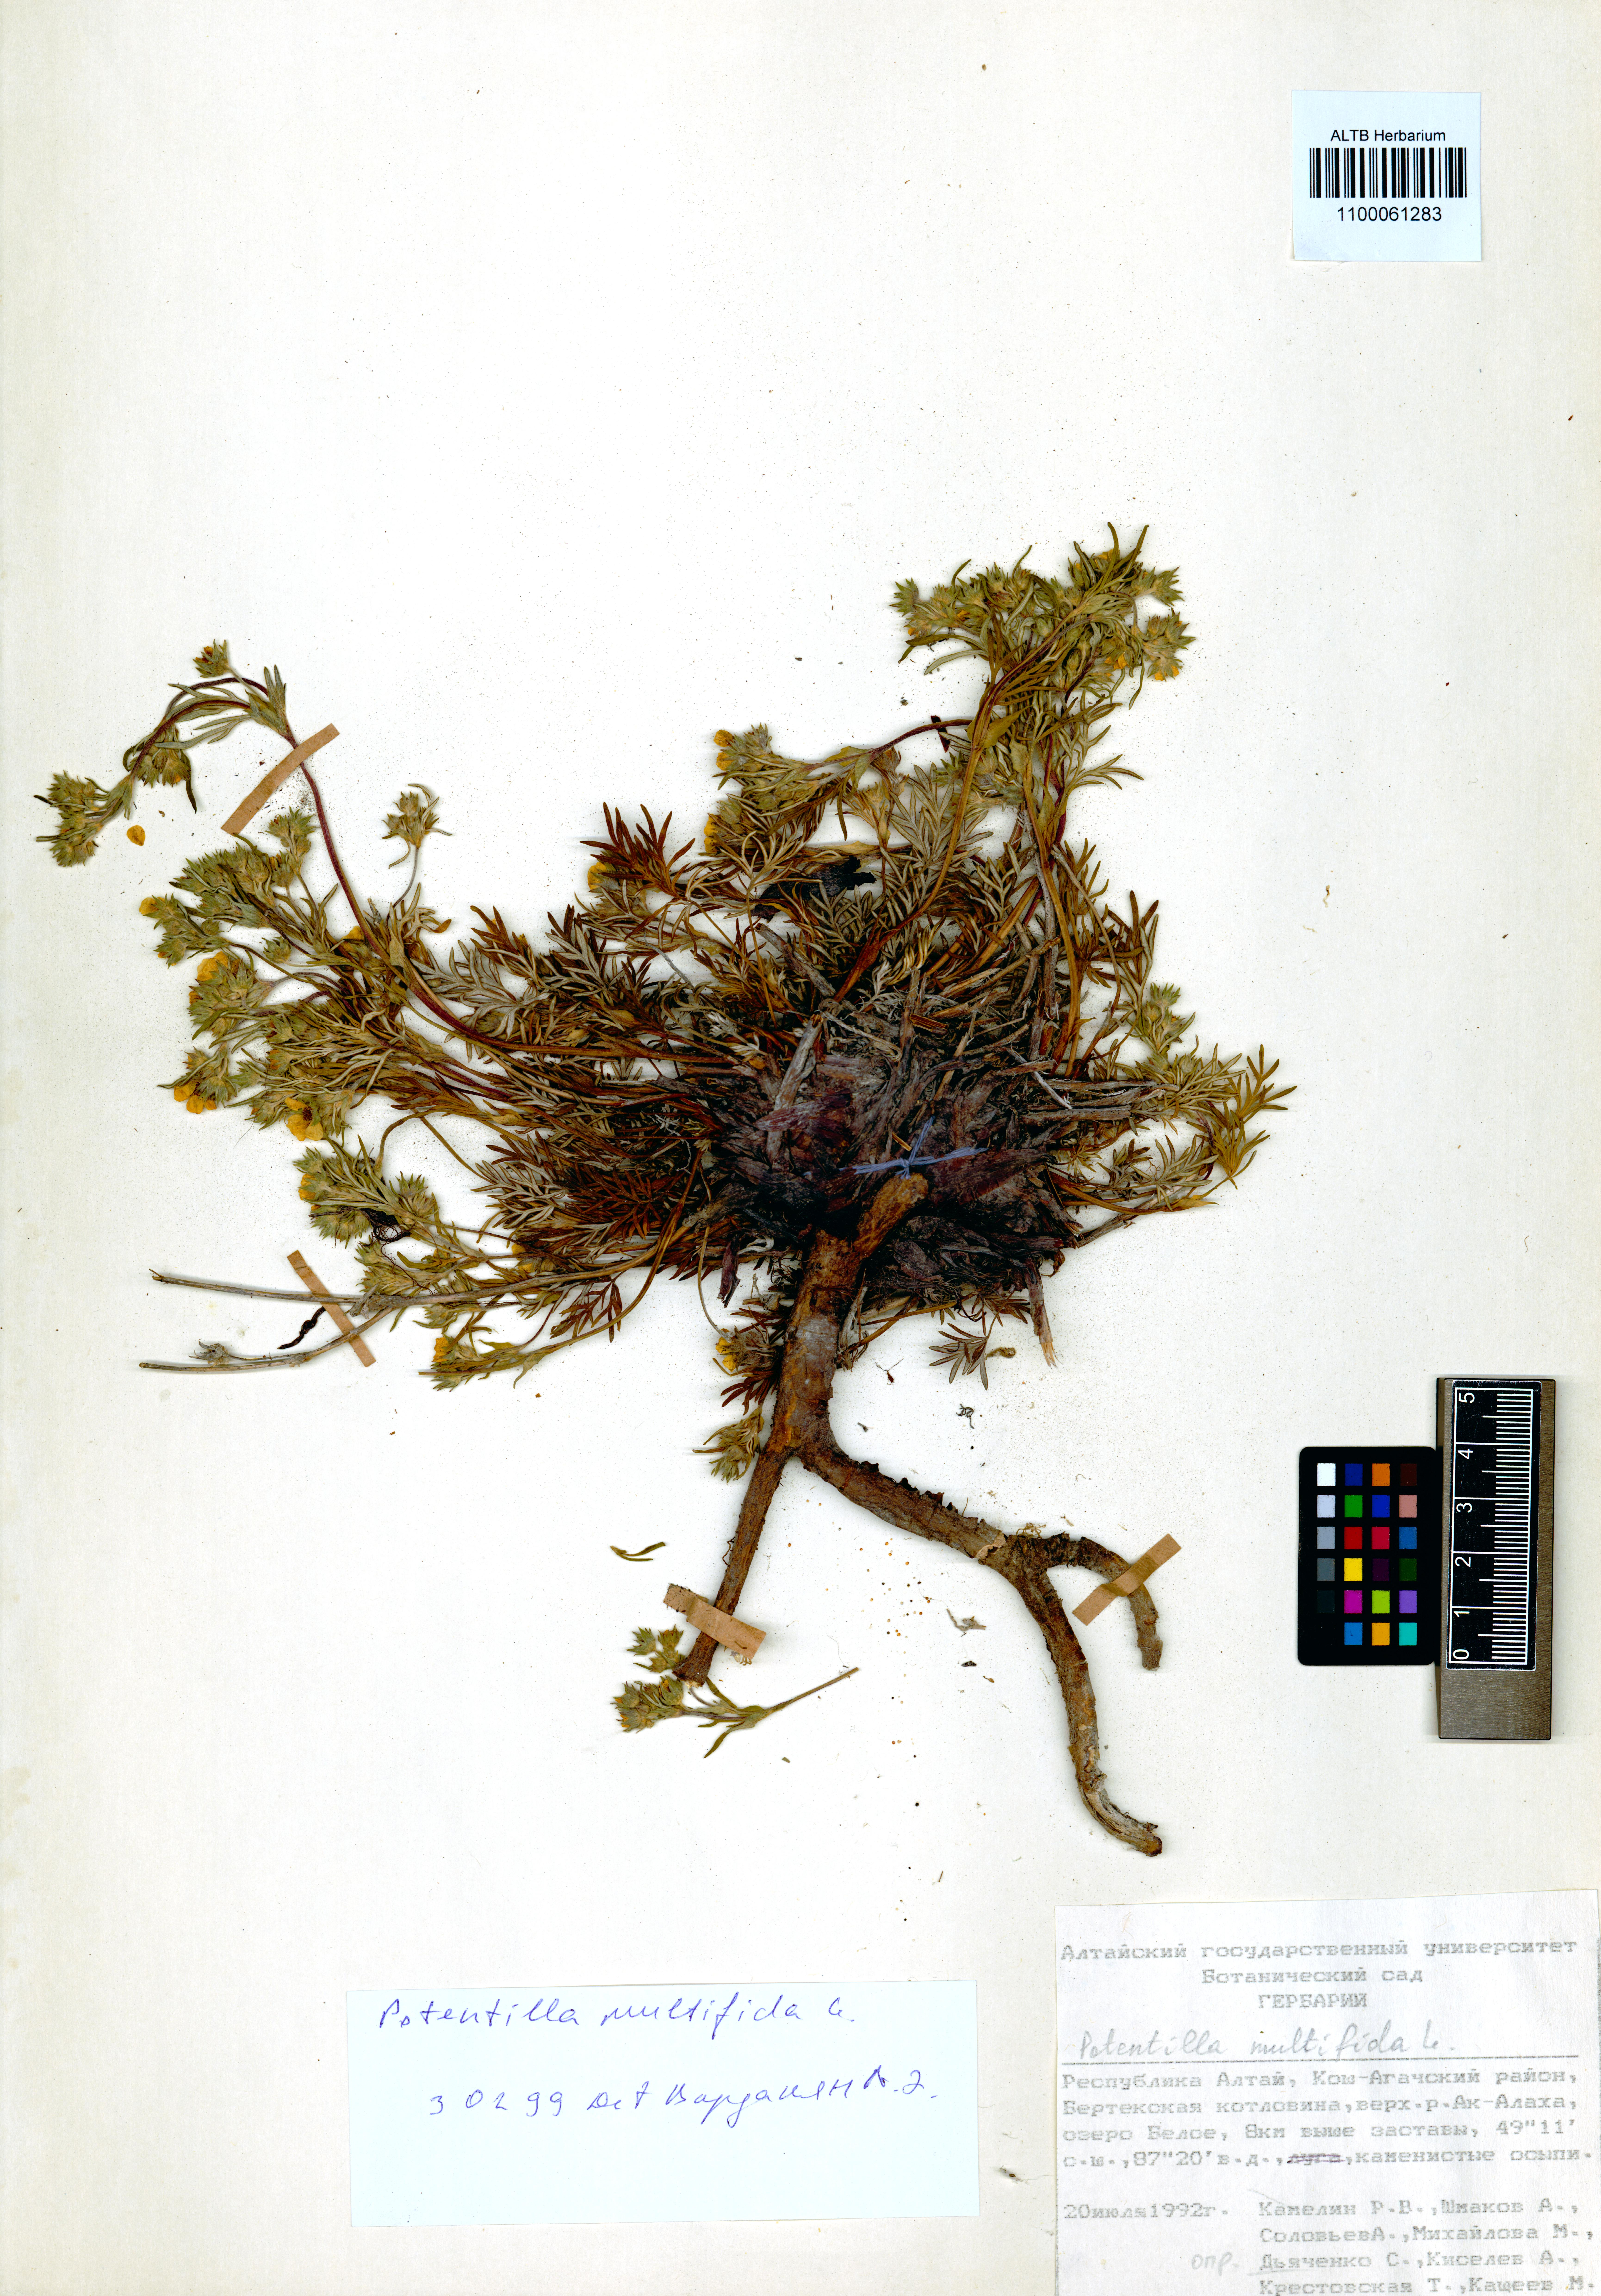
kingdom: Plantae
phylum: Tracheophyta
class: Magnoliopsida
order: Rosales
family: Rosaceae
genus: Potentilla
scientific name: Potentilla multifida
